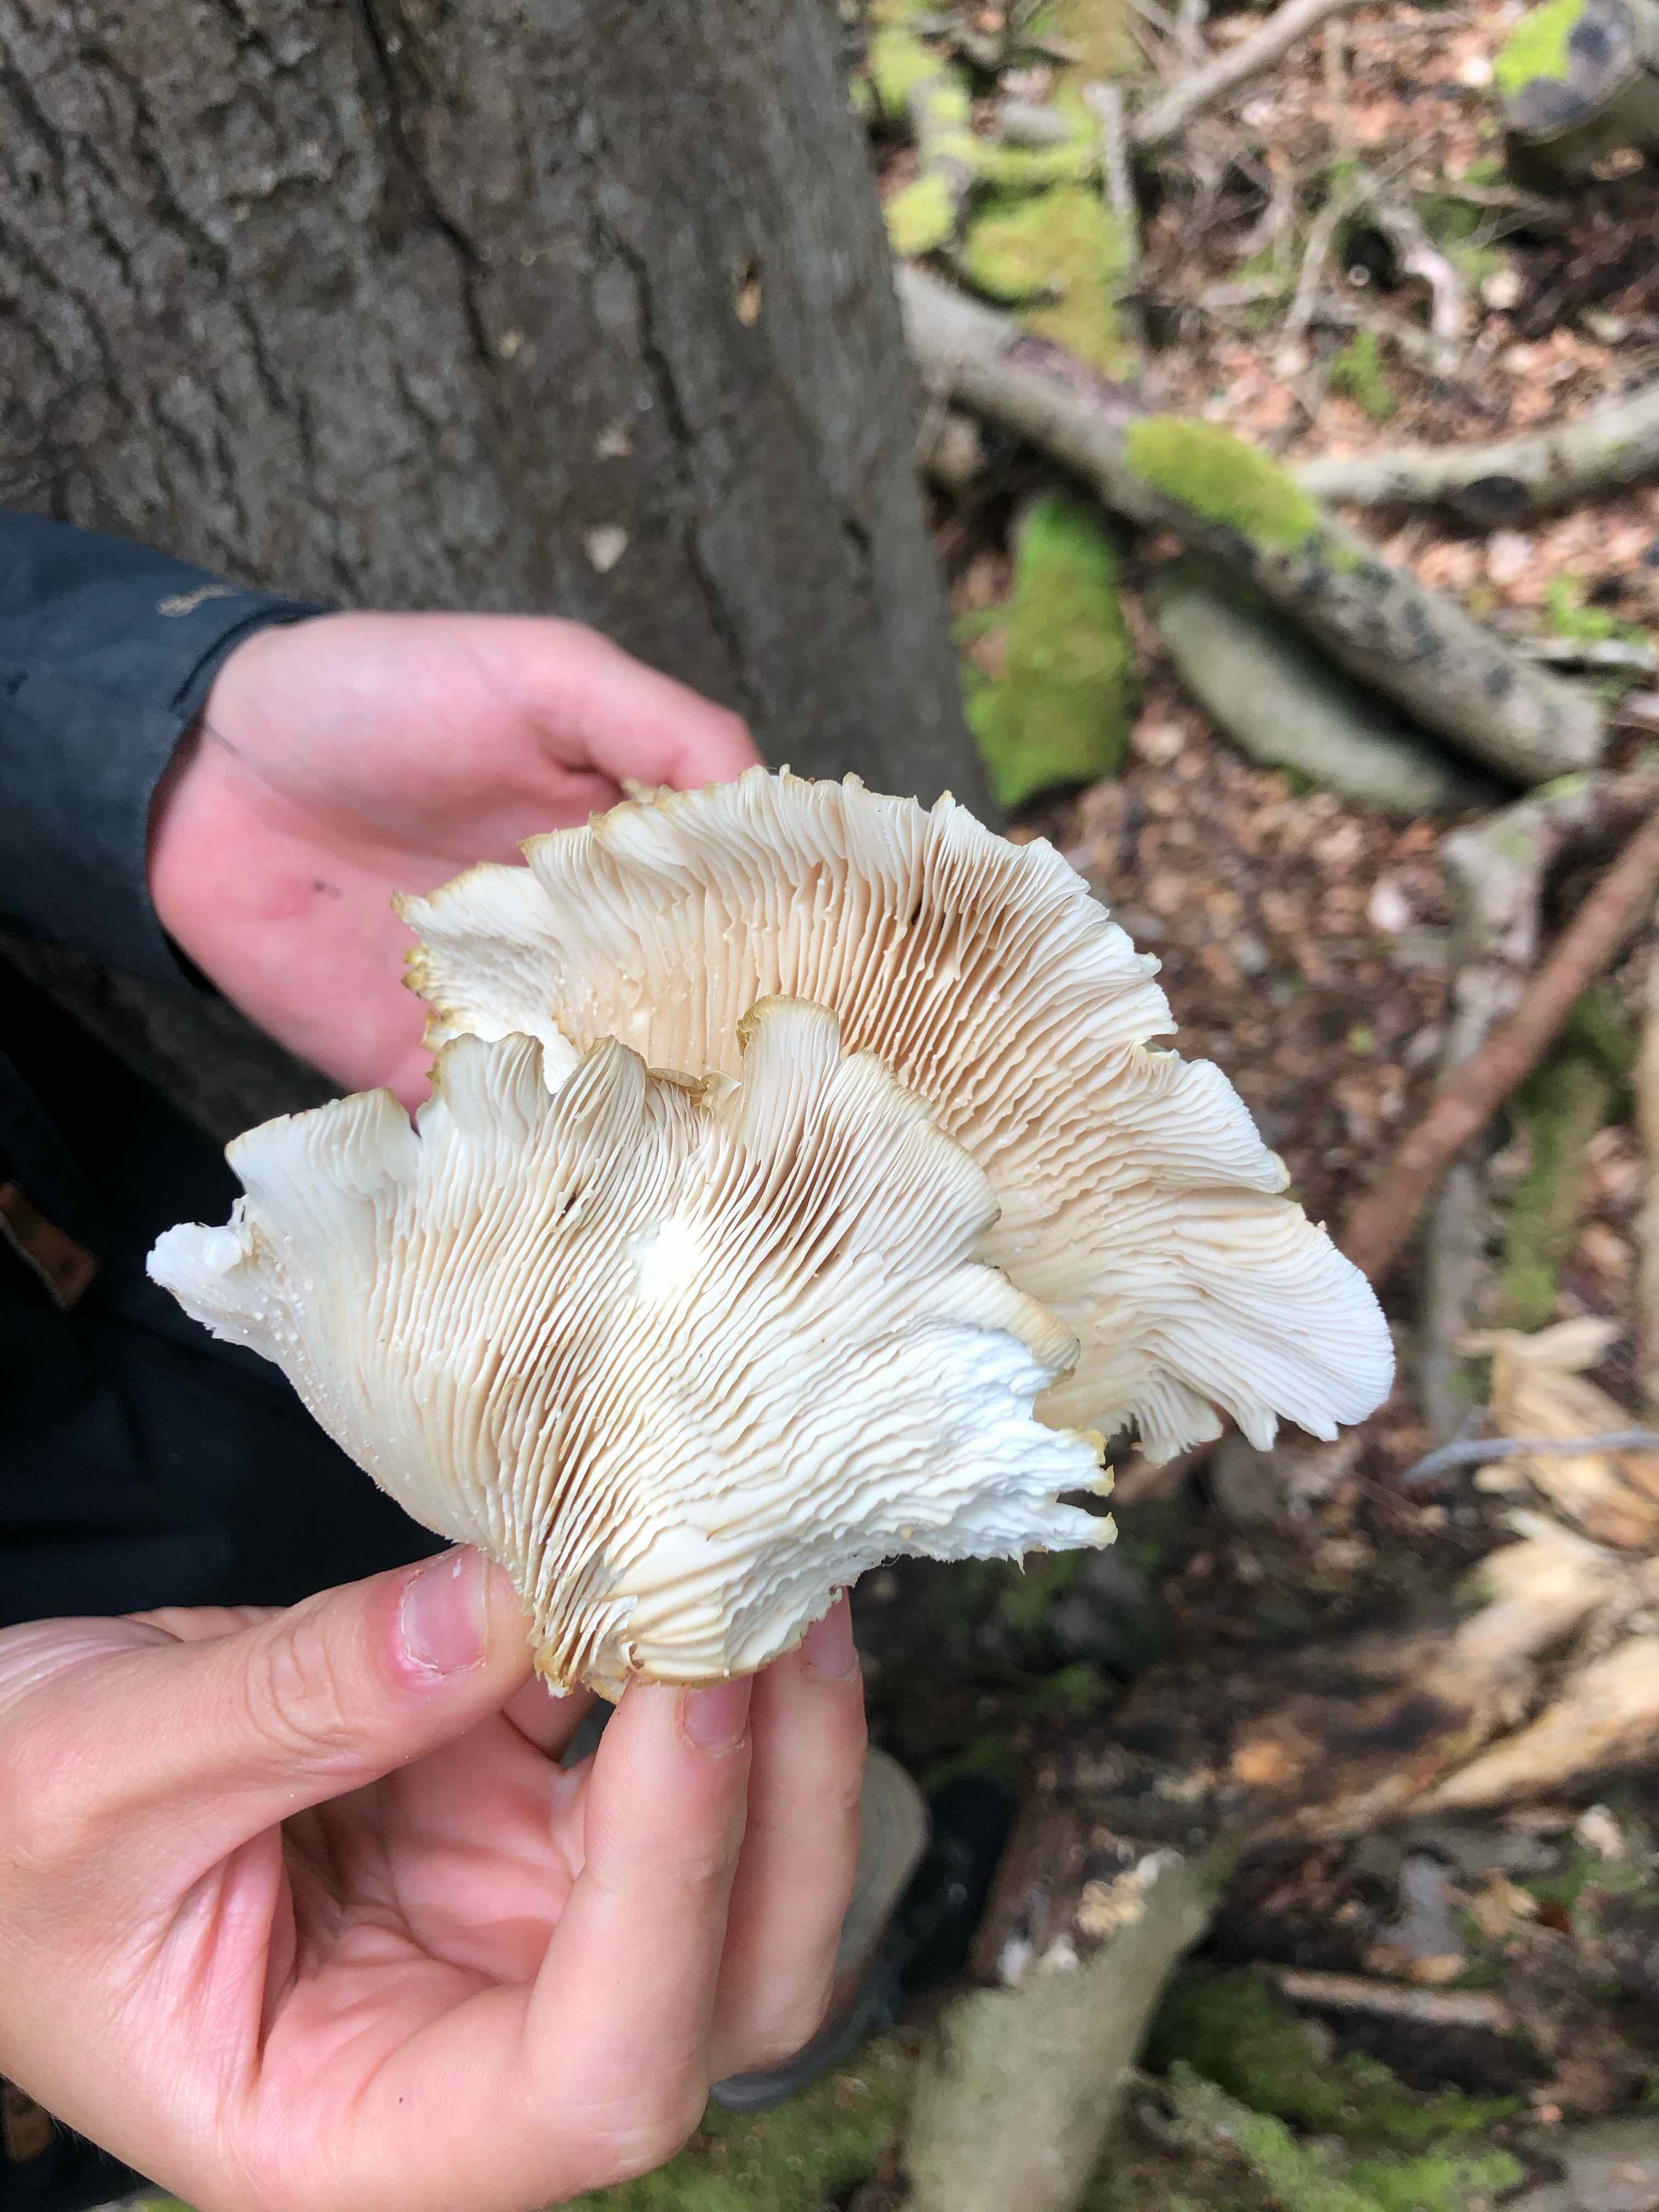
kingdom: Fungi
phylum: Basidiomycota
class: Agaricomycetes
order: Agaricales
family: Pleurotaceae
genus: Pleurotus
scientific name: Pleurotus pulmonarius
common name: sommer-østershat
